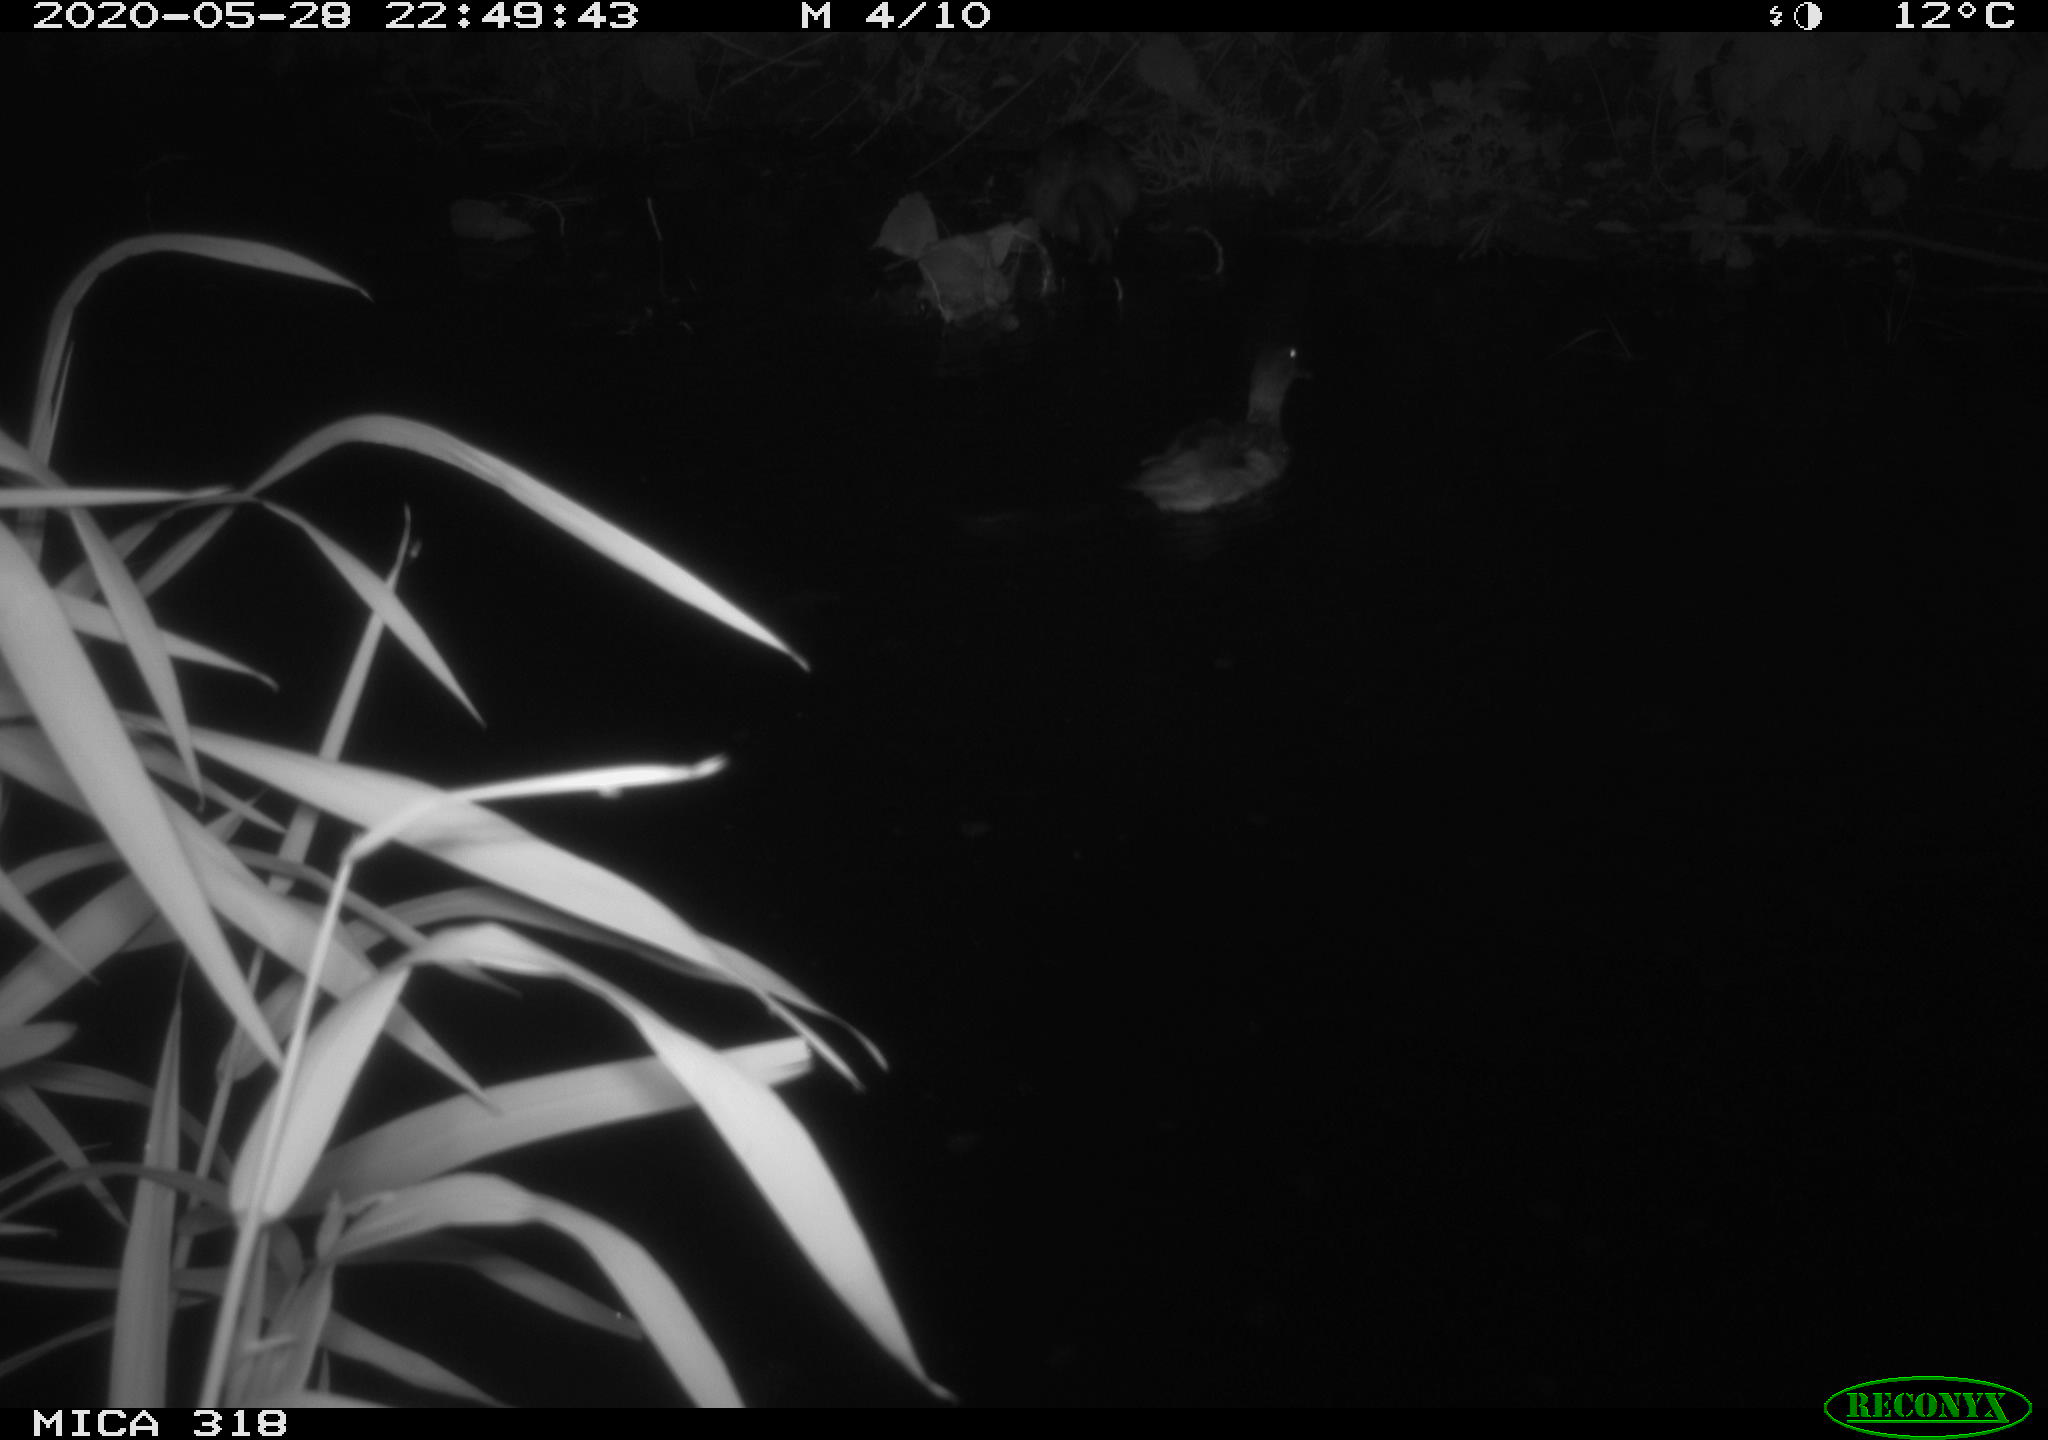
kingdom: Animalia
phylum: Chordata
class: Aves
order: Anseriformes
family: Anatidae
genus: Anas
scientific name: Anas platyrhynchos
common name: Mallard
